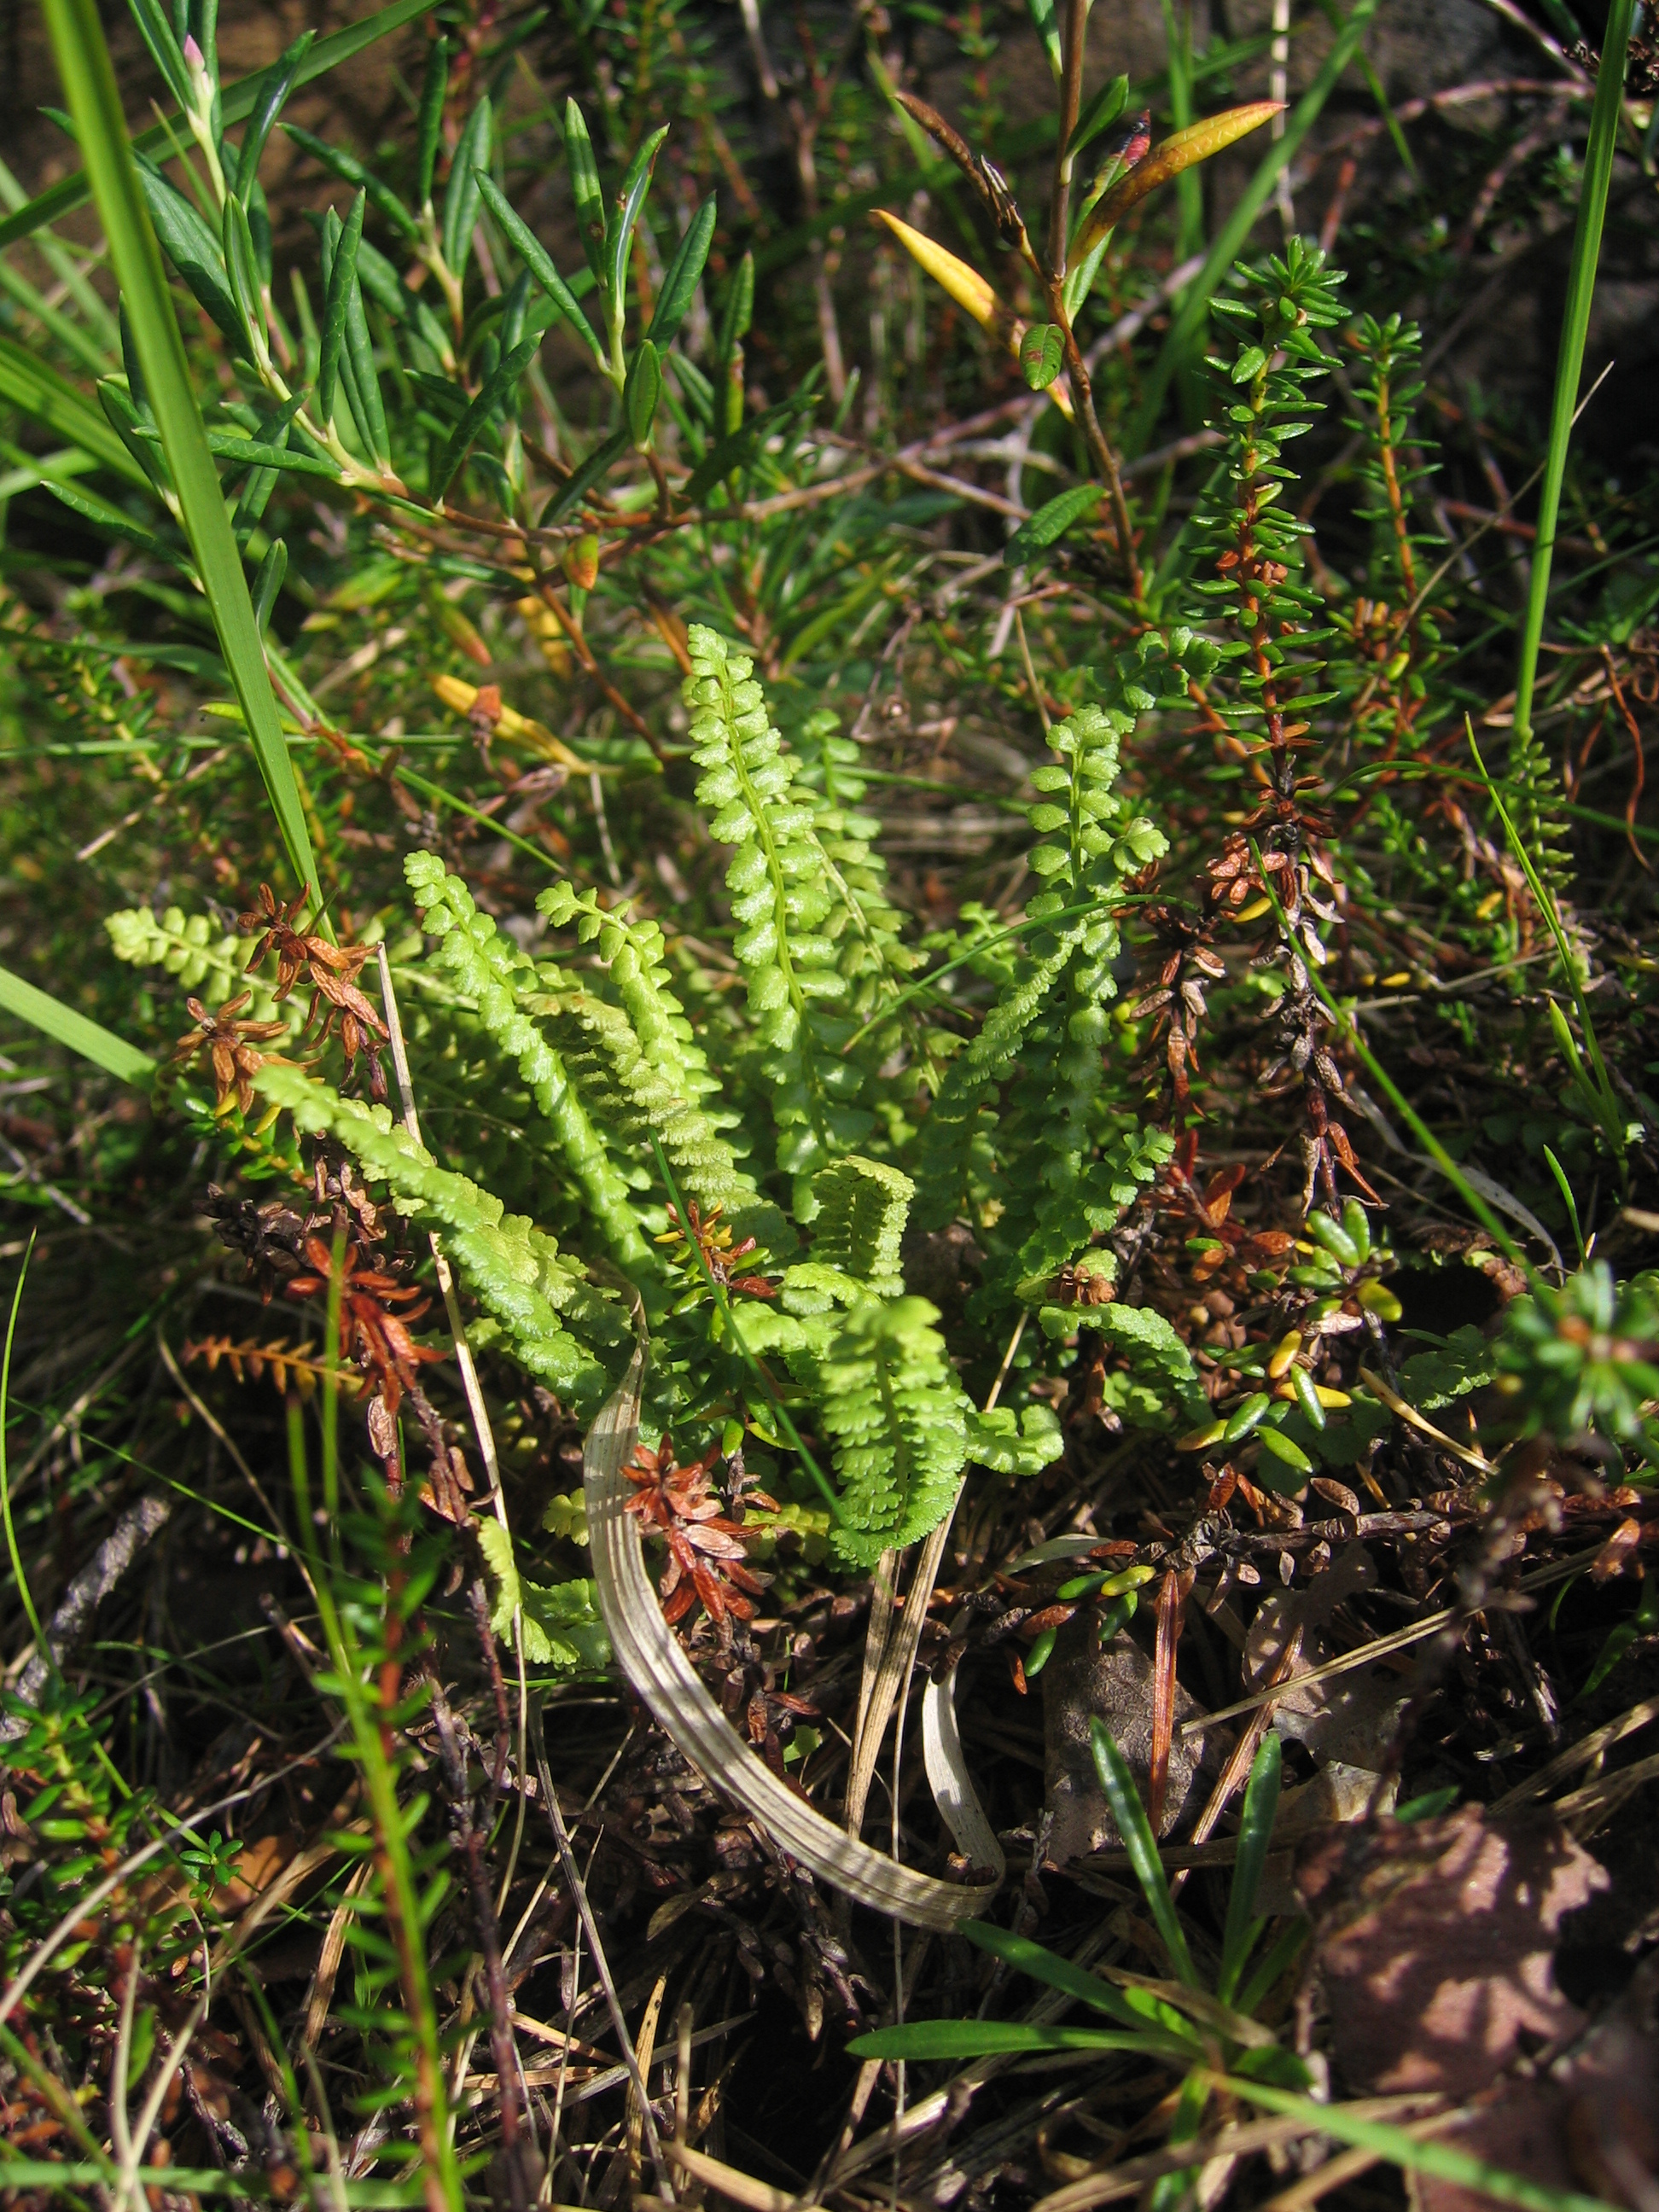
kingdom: Plantae
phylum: Tracheophyta
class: Polypodiopsida
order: Polypodiales
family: Aspleniaceae
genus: Asplenium
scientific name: Asplenium viride
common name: Green spleenwort
